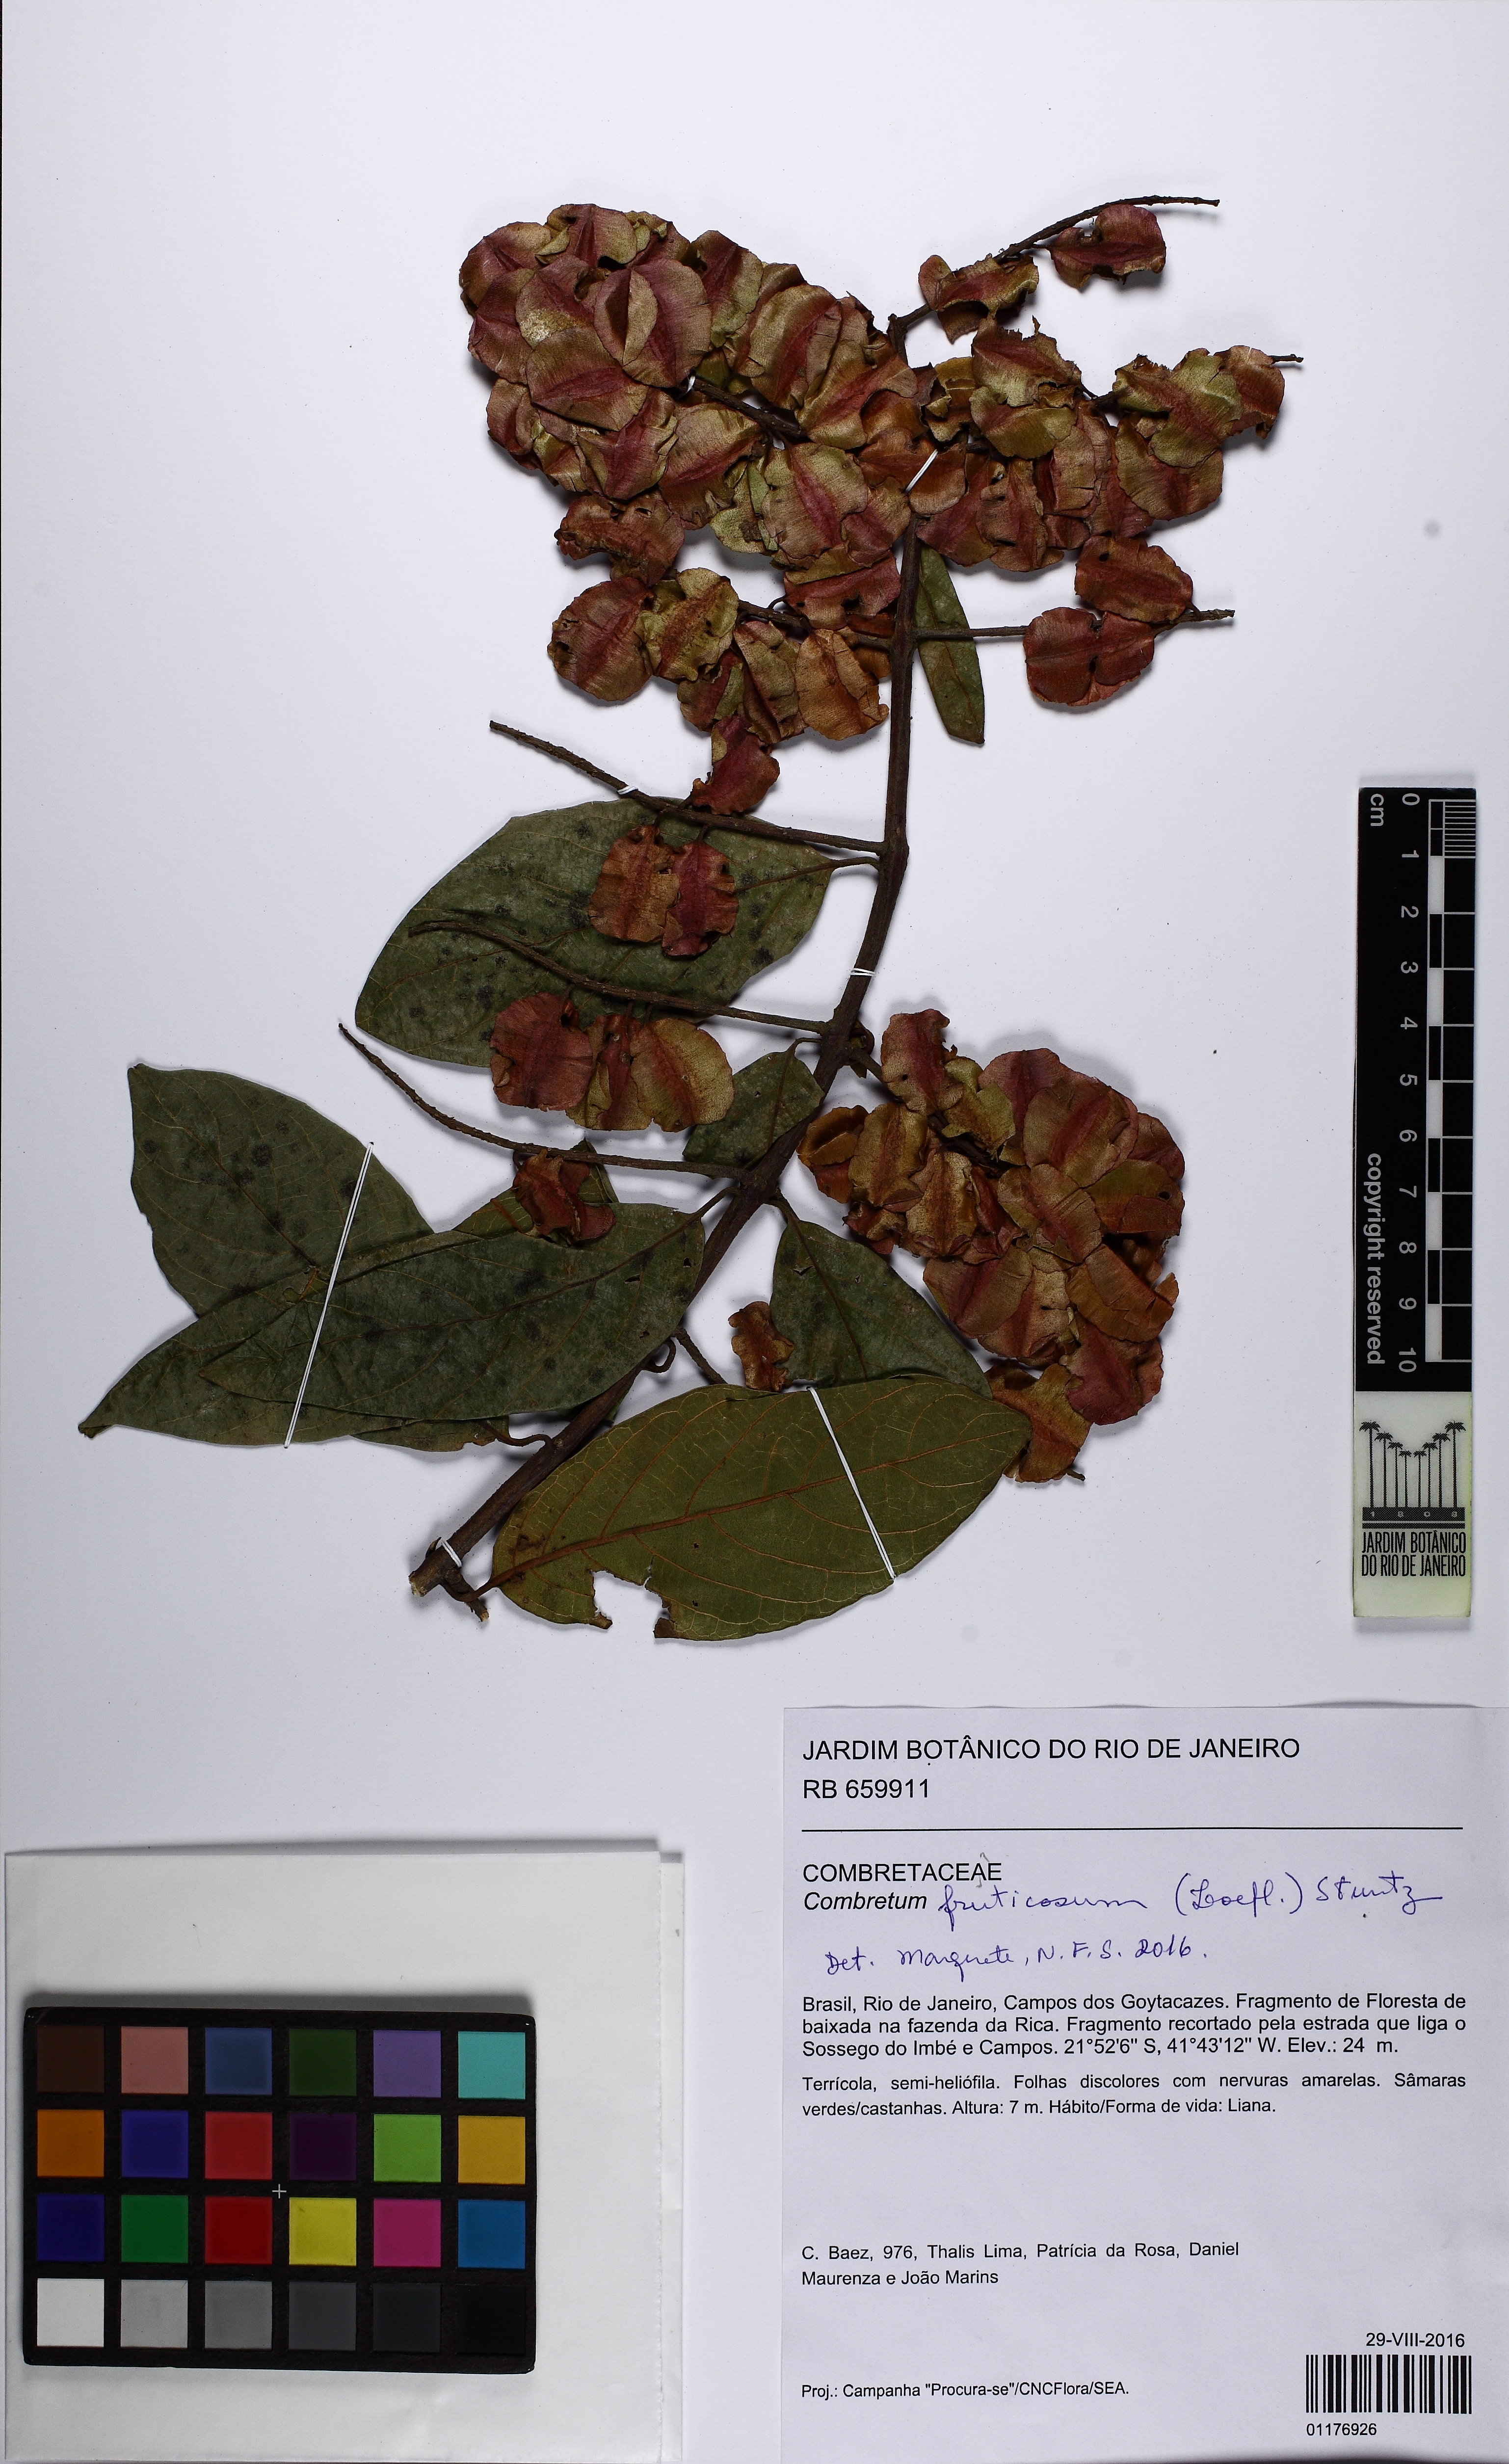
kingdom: Plantae
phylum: Tracheophyta
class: Magnoliopsida
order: Myrtales
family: Combretaceae
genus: Combretum
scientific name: Combretum fruticosum
